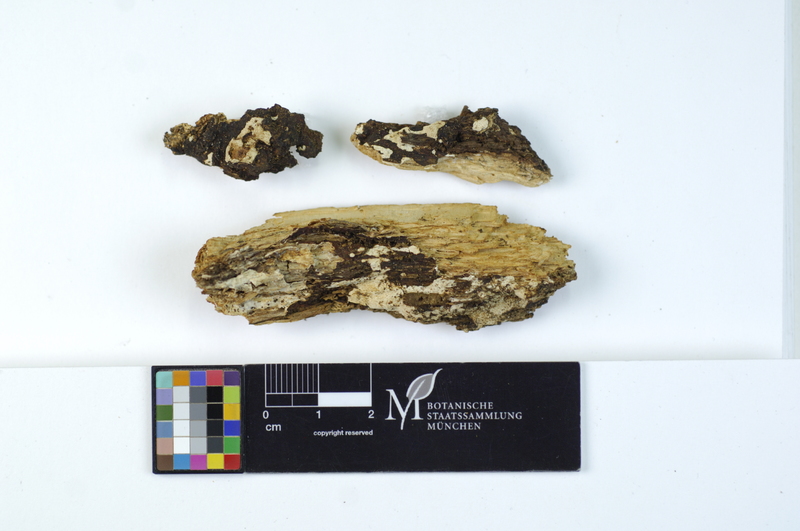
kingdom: Plantae
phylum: Tracheophyta
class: Magnoliopsida
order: Fagales
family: Fagaceae
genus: Quercus
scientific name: Quercus
